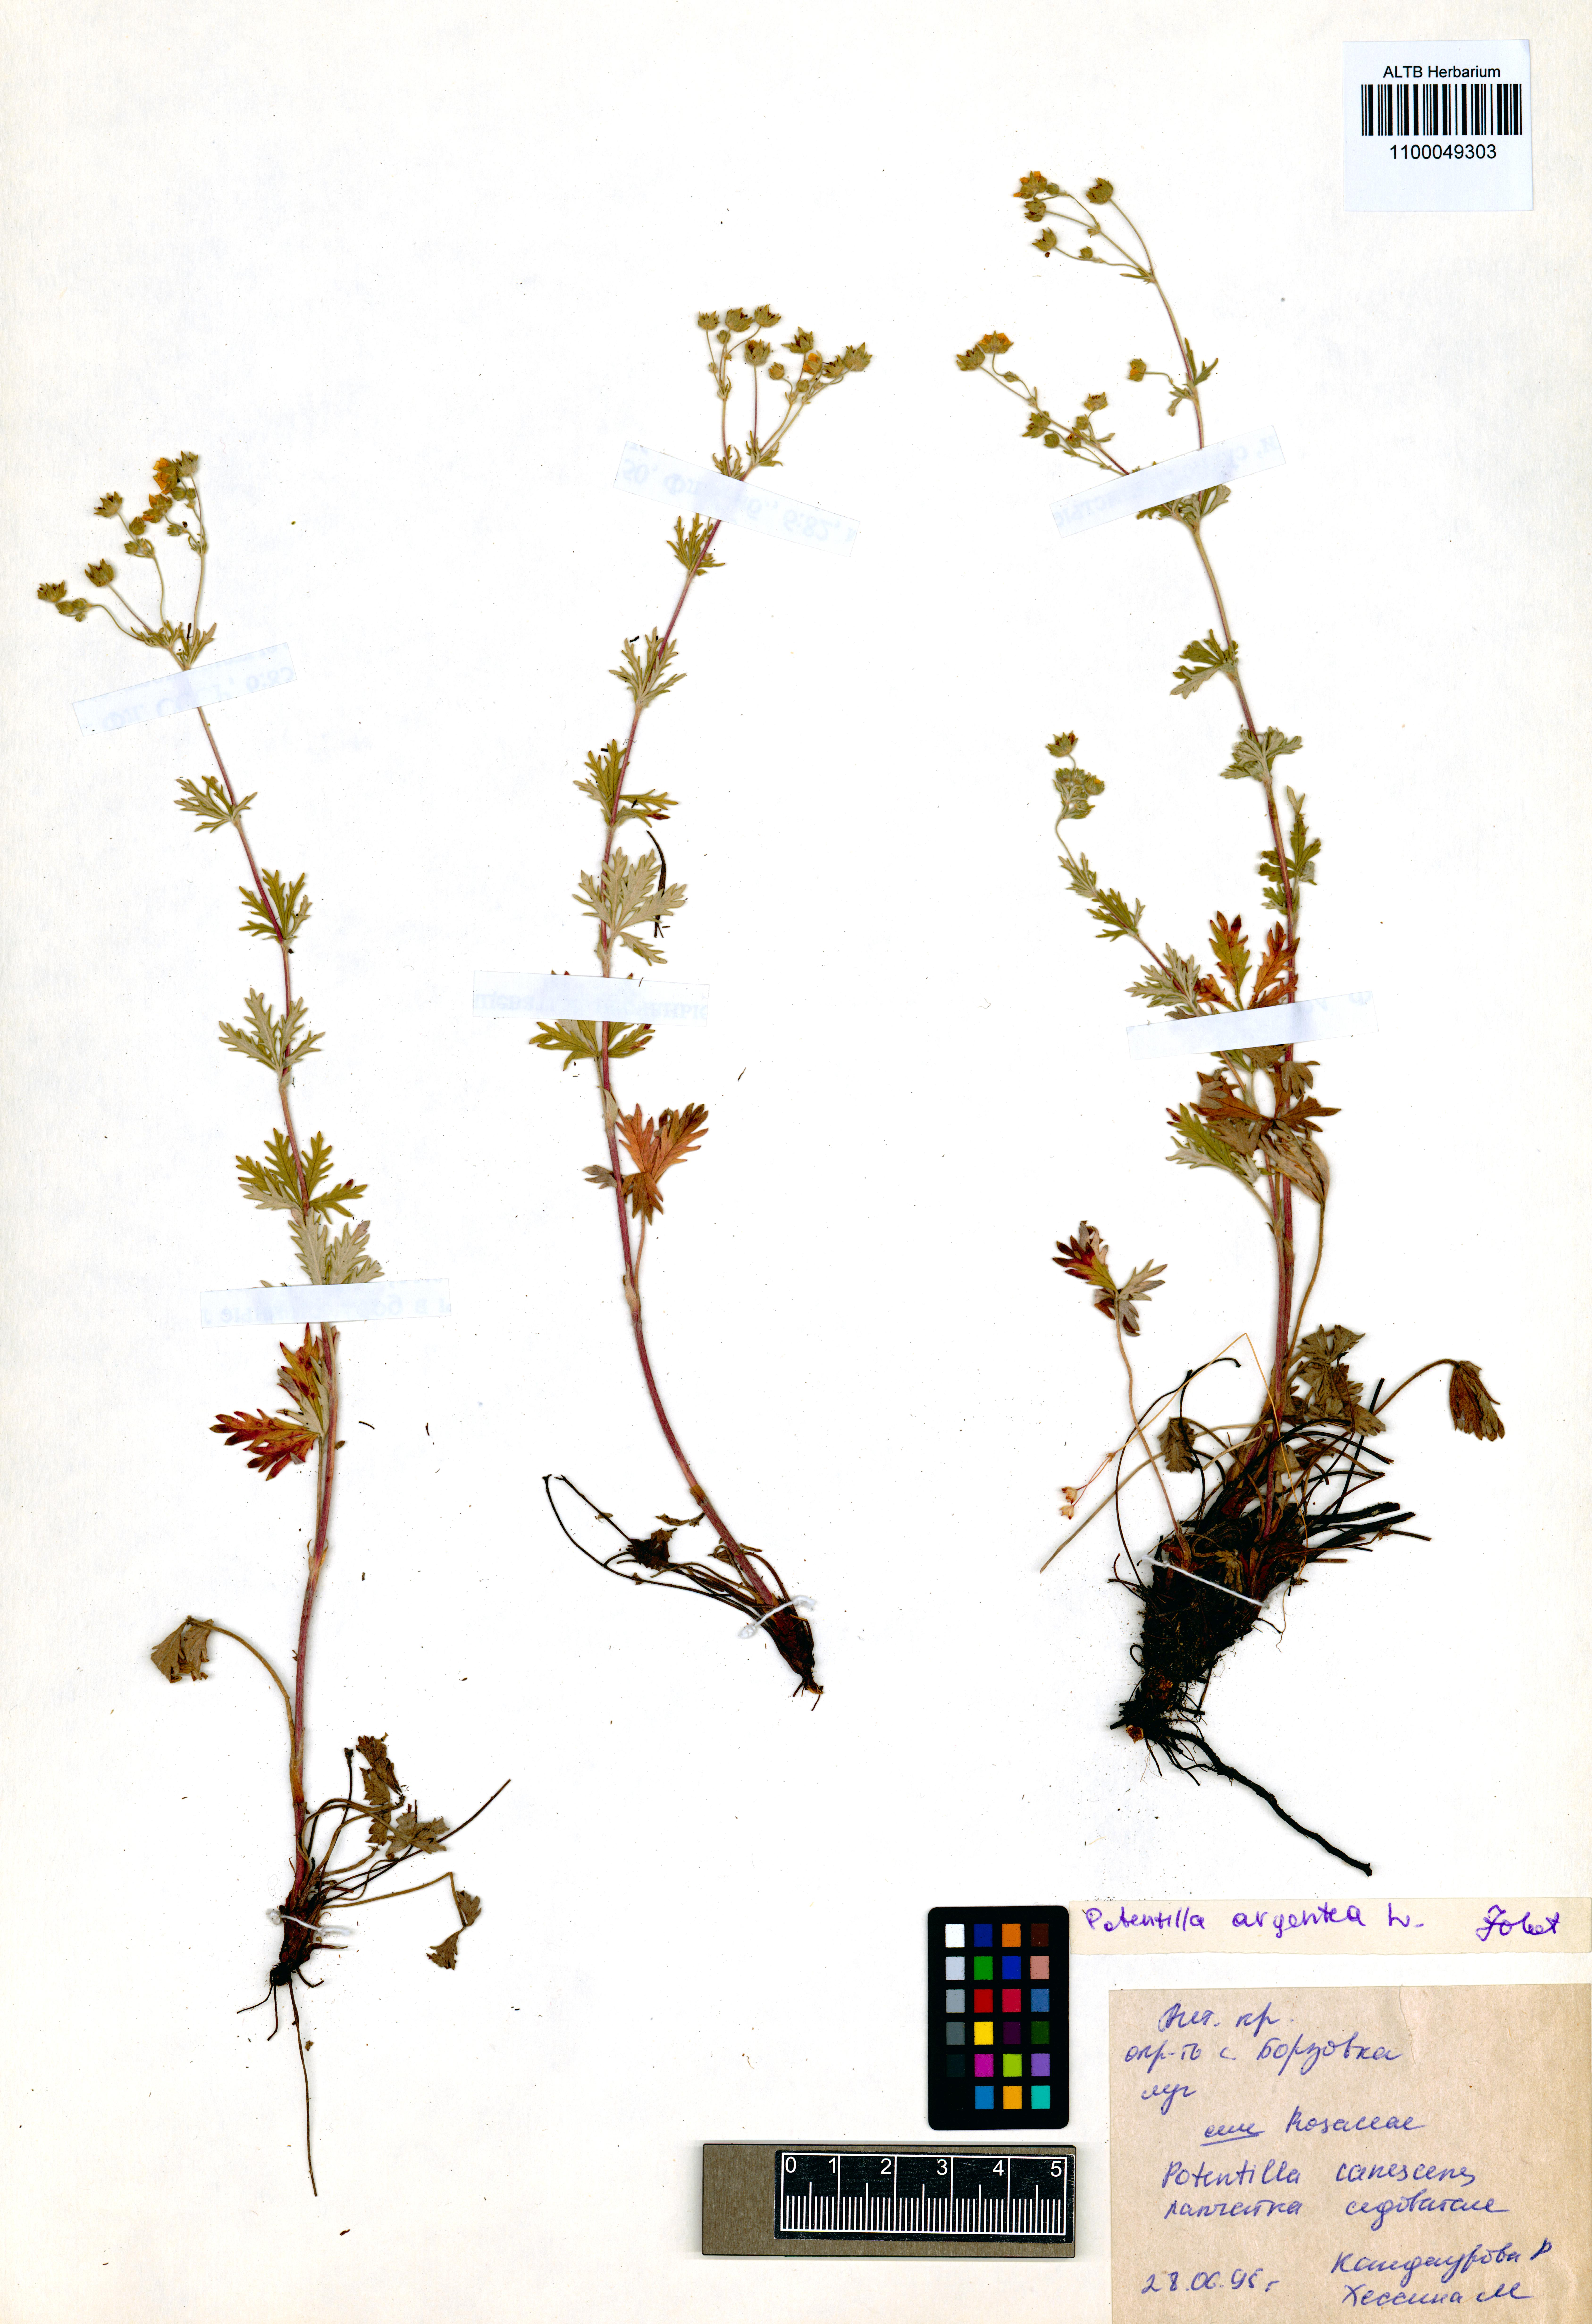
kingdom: Plantae
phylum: Tracheophyta
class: Magnoliopsida
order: Rosales
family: Rosaceae
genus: Potentilla
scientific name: Potentilla argentea
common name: Hoary cinquefoil
